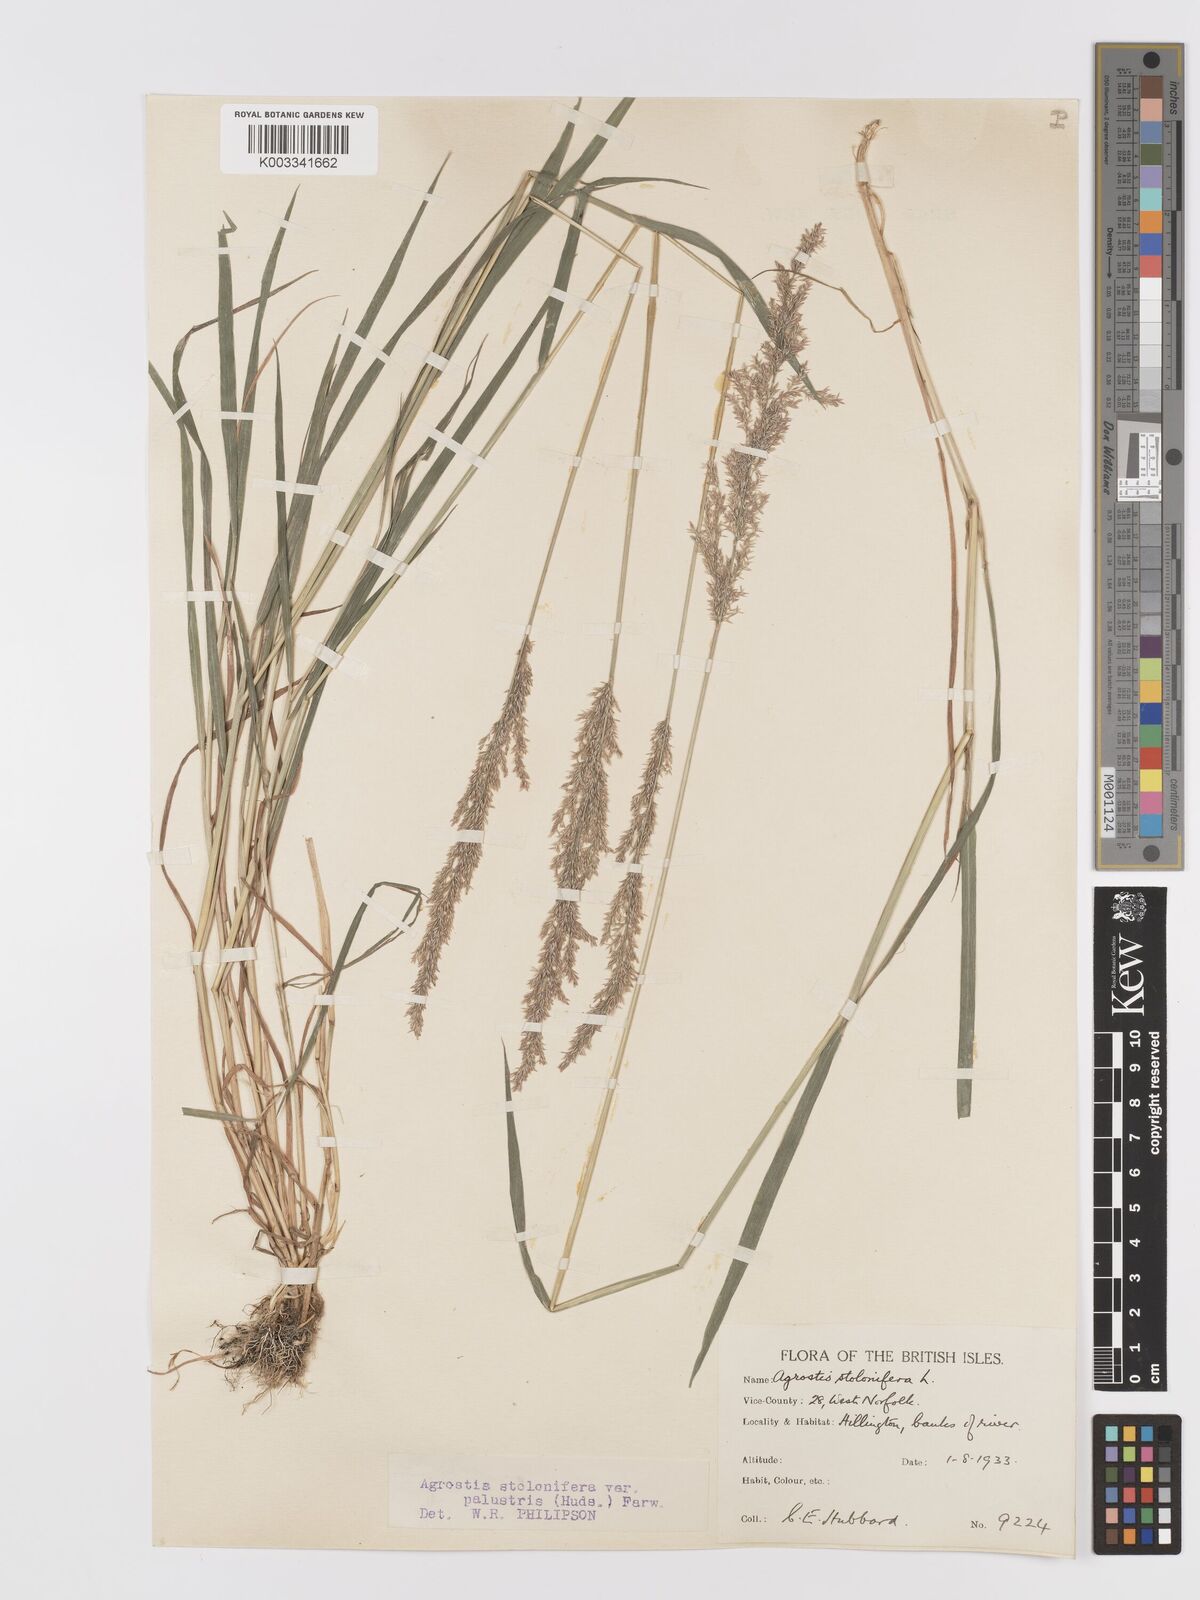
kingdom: Plantae
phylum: Tracheophyta
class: Liliopsida
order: Poales
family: Poaceae
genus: Agrostis
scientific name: Agrostis stolonifera
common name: Creeping bentgrass
